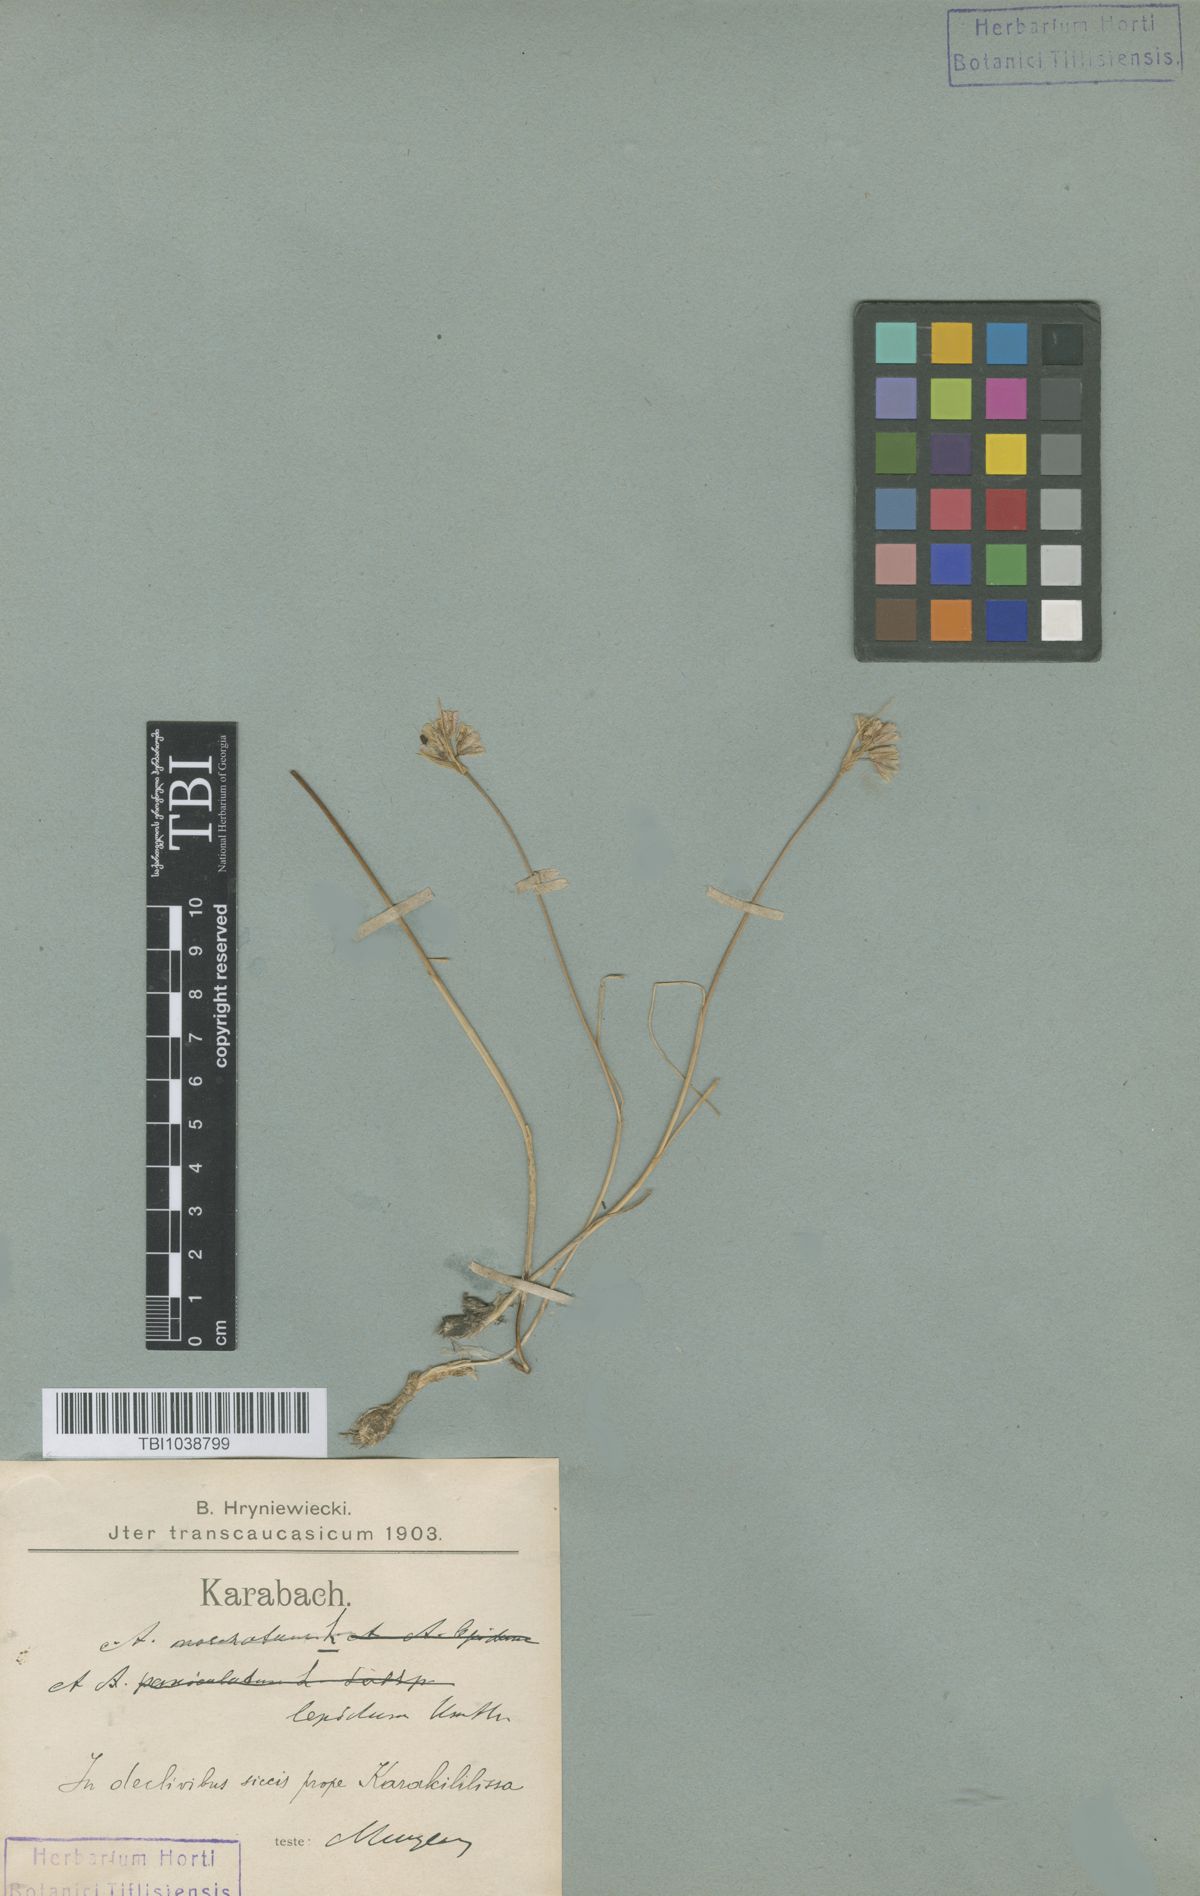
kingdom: Plantae
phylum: Tracheophyta
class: Liliopsida
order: Asparagales
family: Amaryllidaceae
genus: Allium
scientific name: Allium kunthianum
